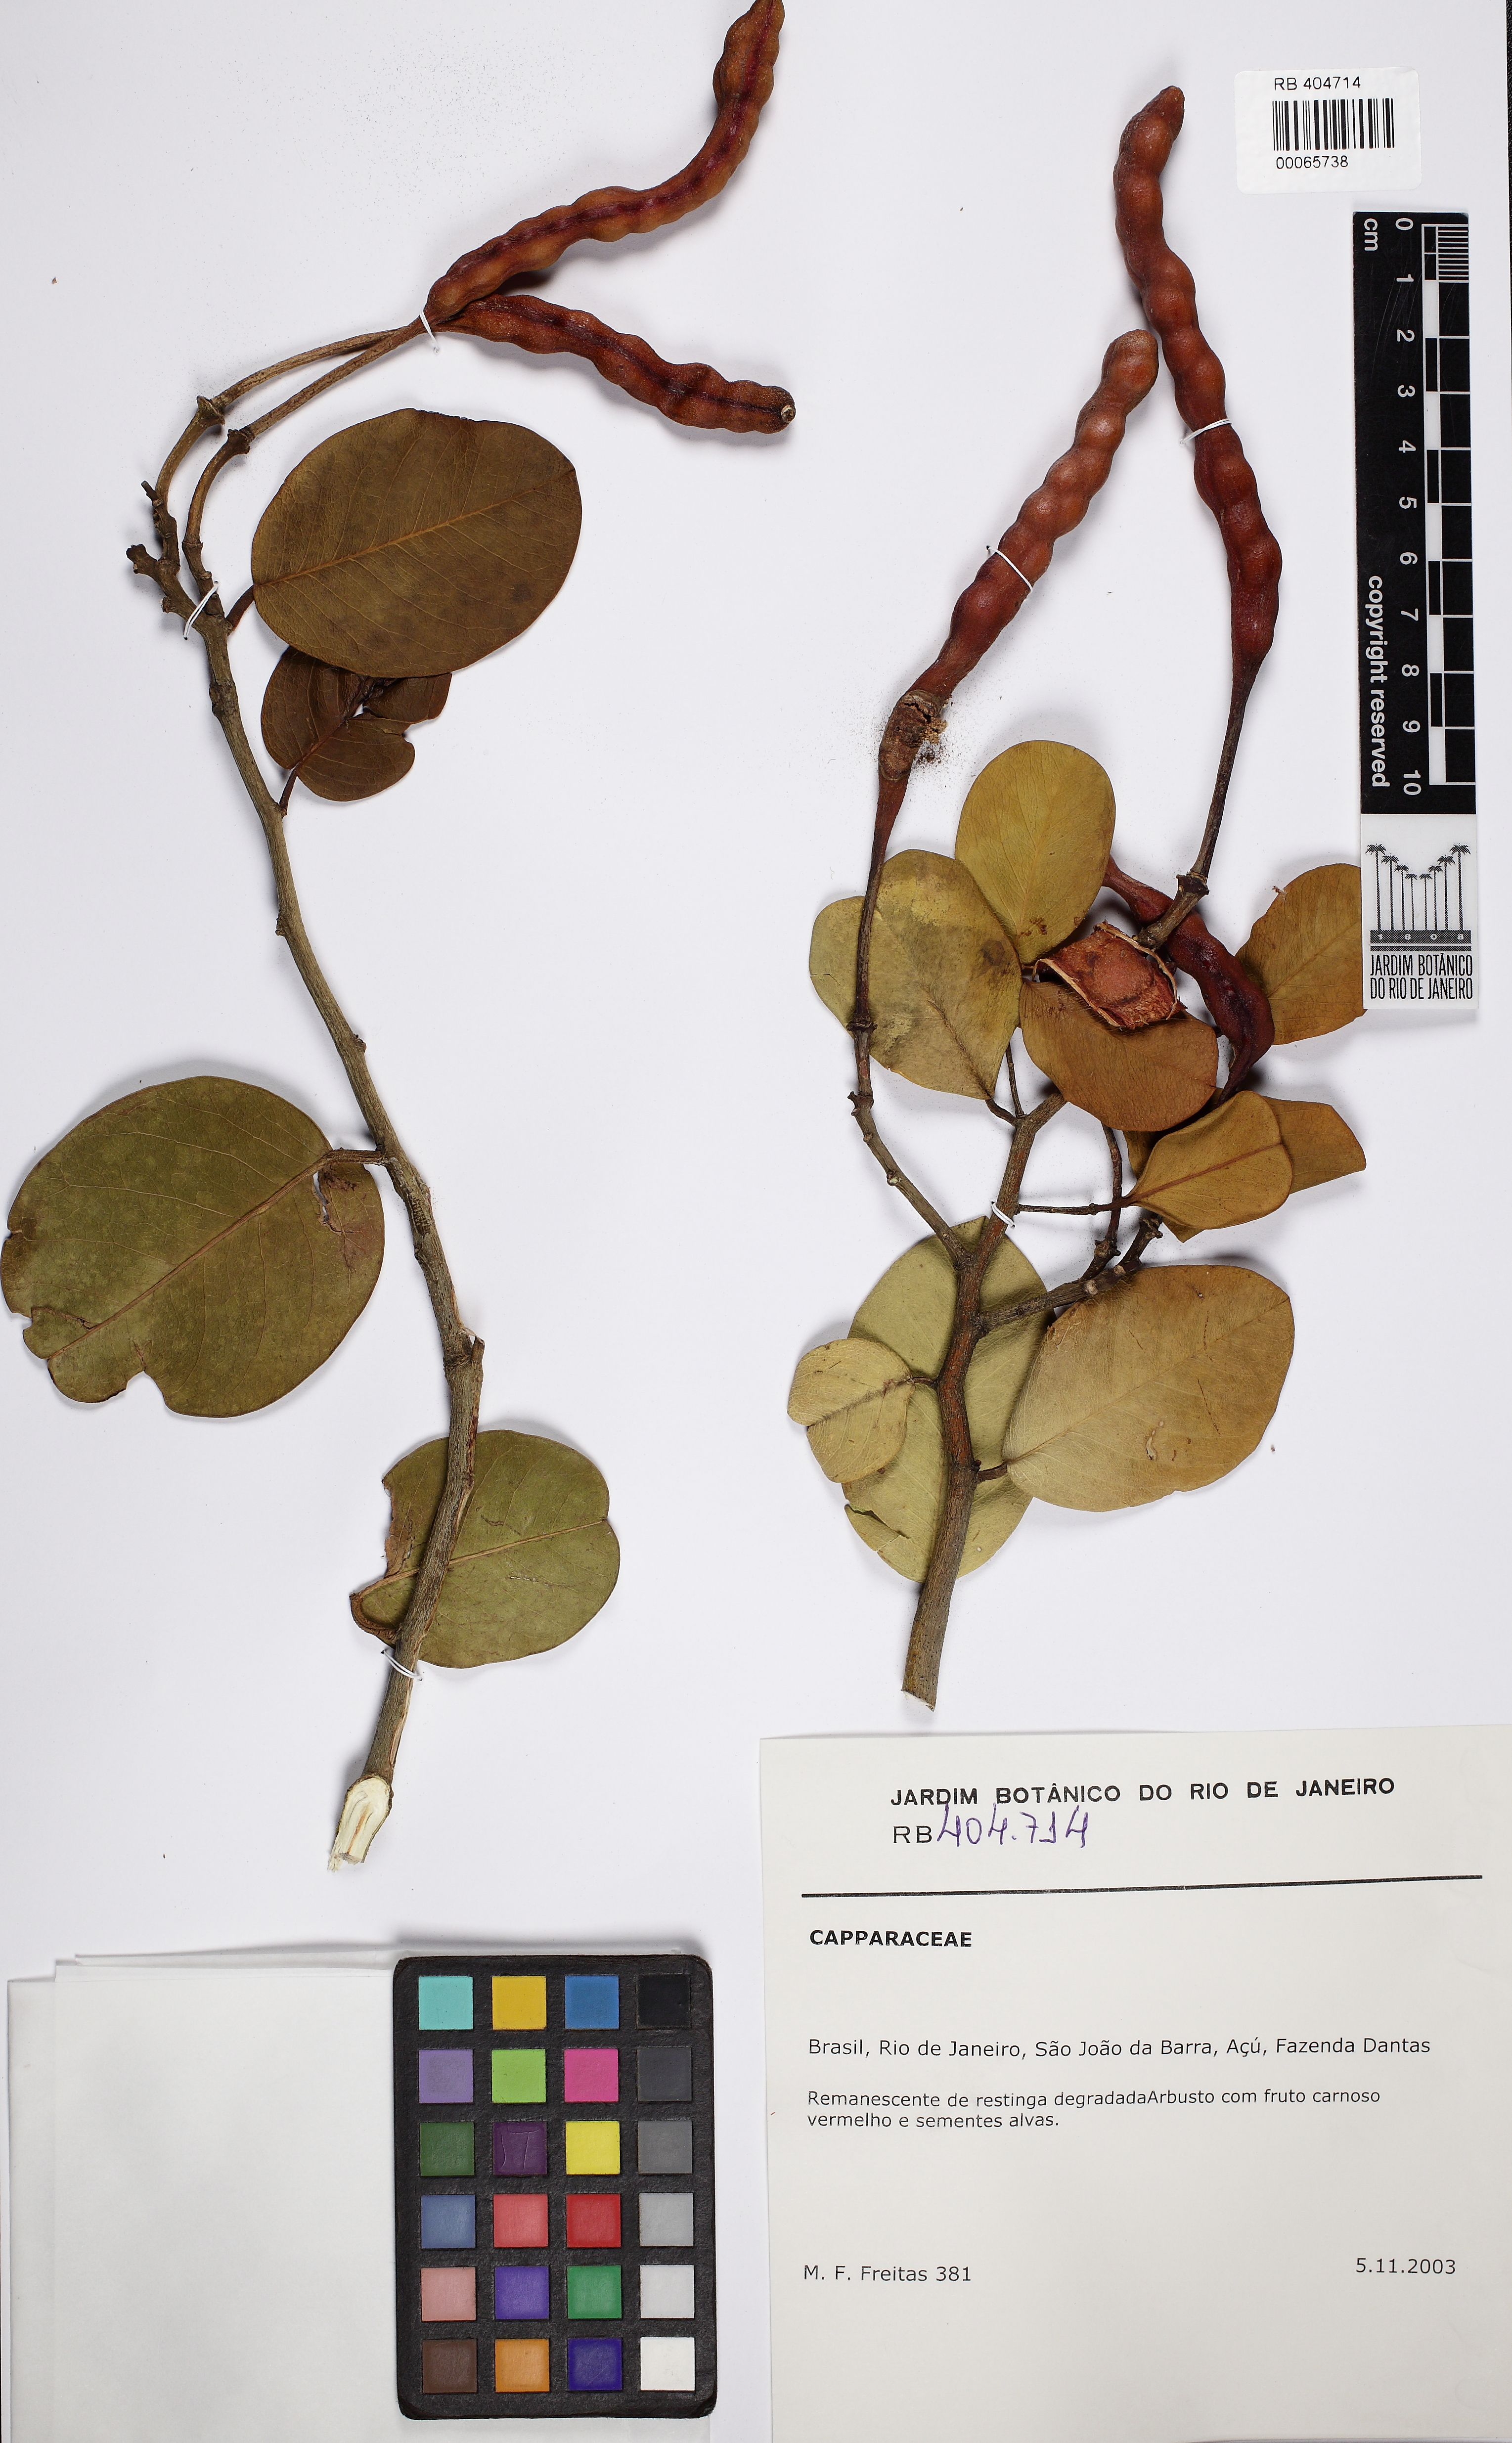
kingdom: Plantae
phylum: Tracheophyta
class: Magnoliopsida
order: Brassicales
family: Capparaceae
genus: Cynophalla
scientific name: Cynophalla flexuosa
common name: Capertree
